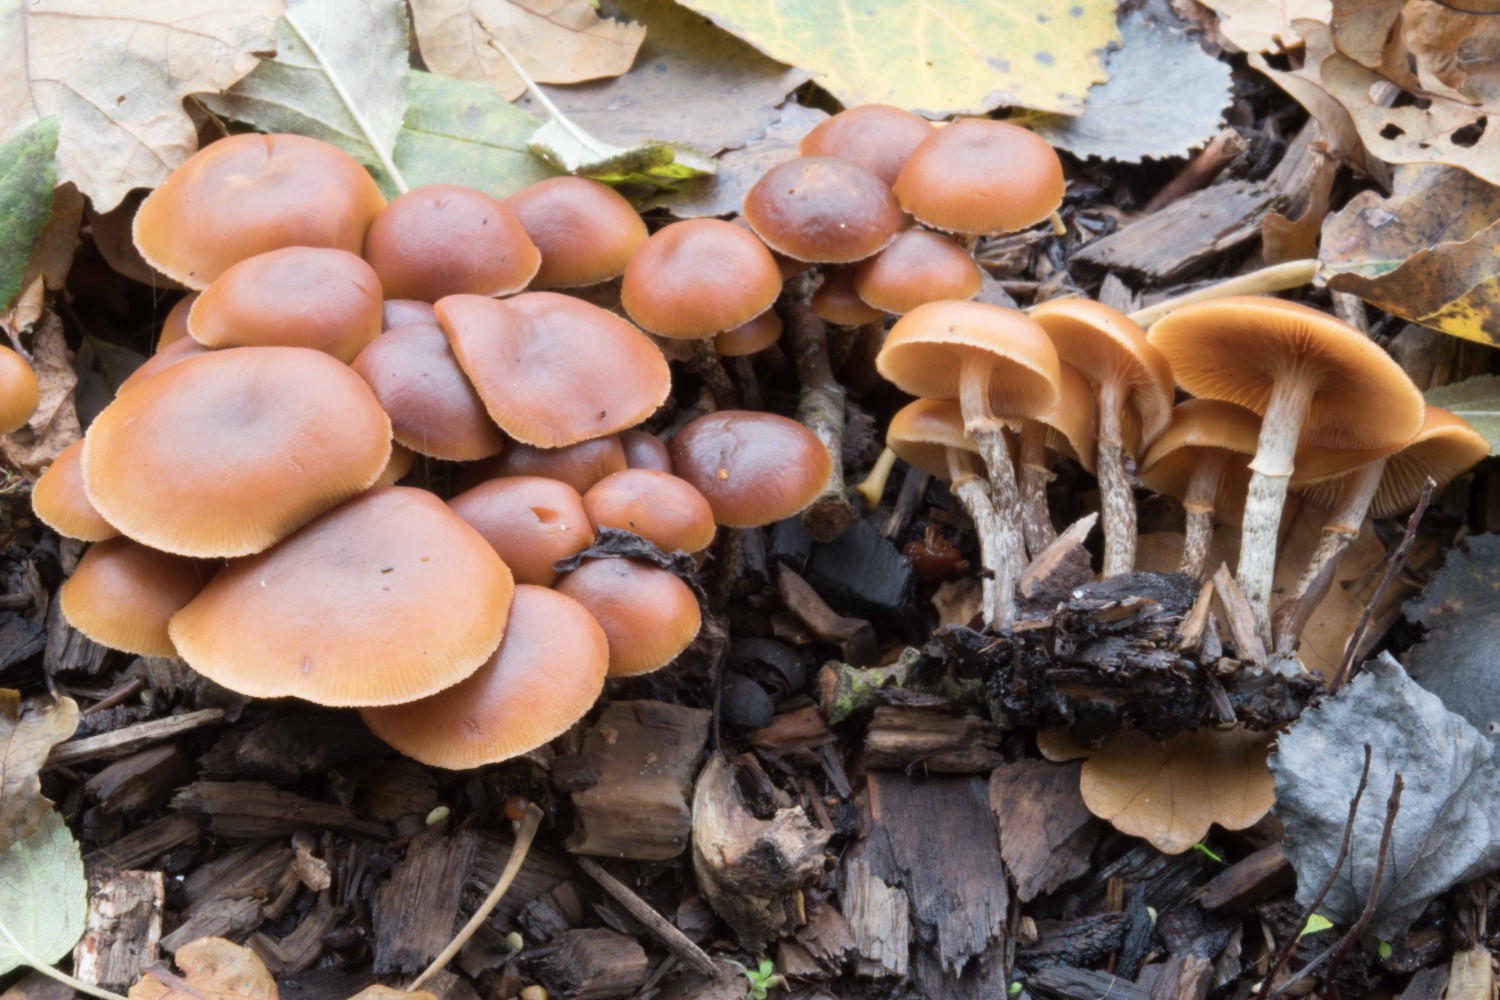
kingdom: Fungi
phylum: Basidiomycota
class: Agaricomycetes
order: Agaricales
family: Hymenogastraceae
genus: Galerina
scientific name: Galerina marginata
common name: randbæltet hjelmhat
